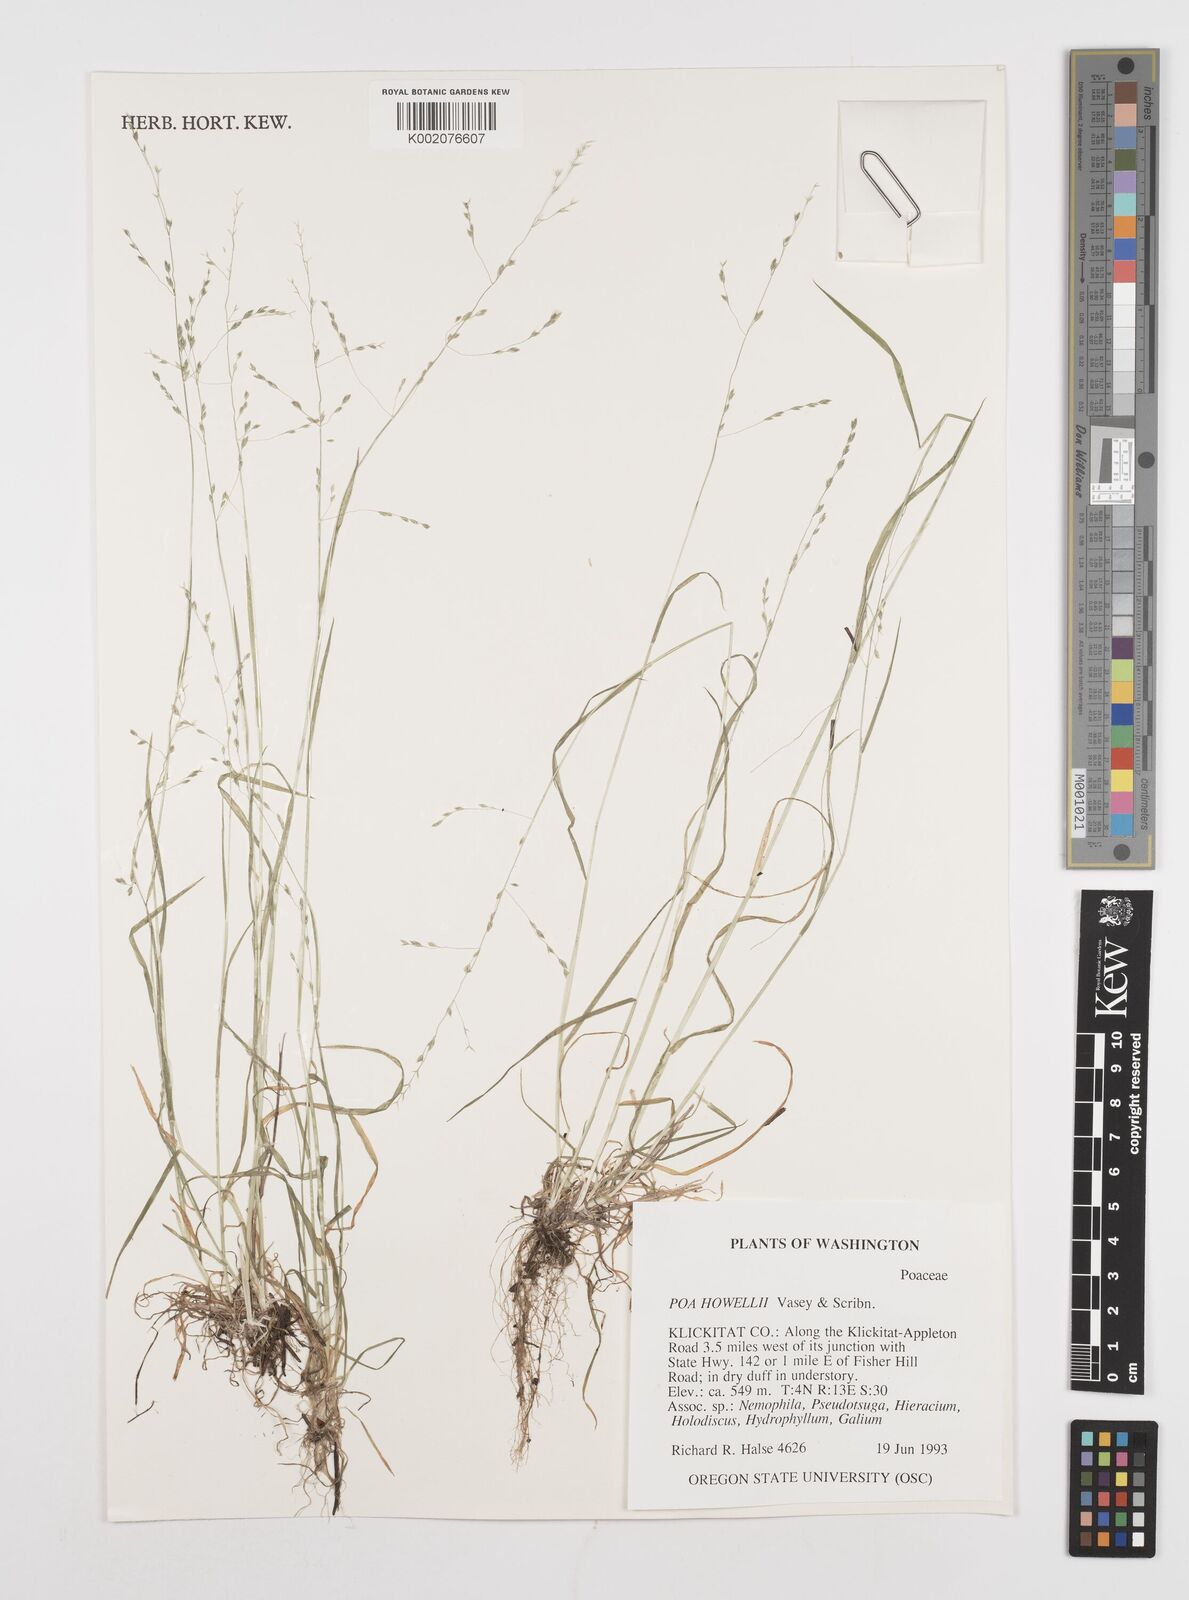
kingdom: Plantae
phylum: Tracheophyta
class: Liliopsida
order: Poales
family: Poaceae
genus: Poa
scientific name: Poa howellii
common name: Howell's bluegrass
